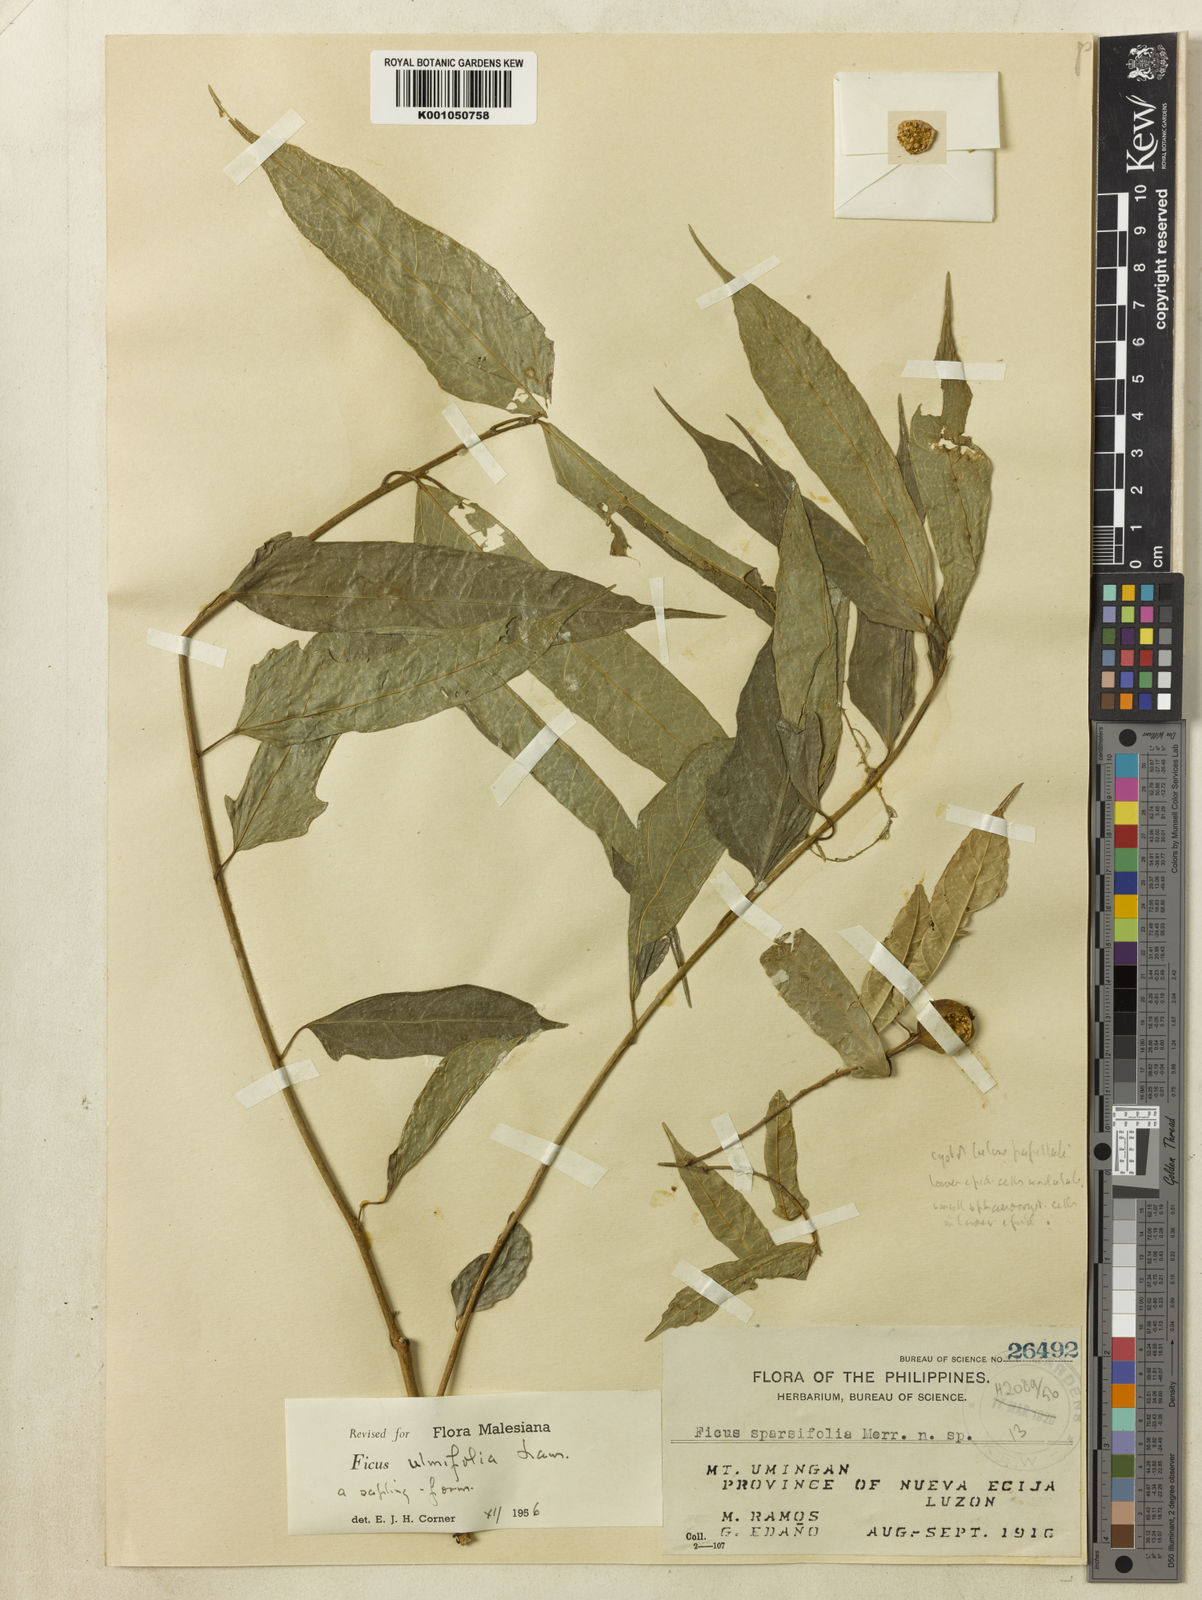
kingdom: Plantae
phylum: Tracheophyta
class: Magnoliopsida
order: Rosales
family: Moraceae
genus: Ficus
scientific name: Ficus ulmifolia
